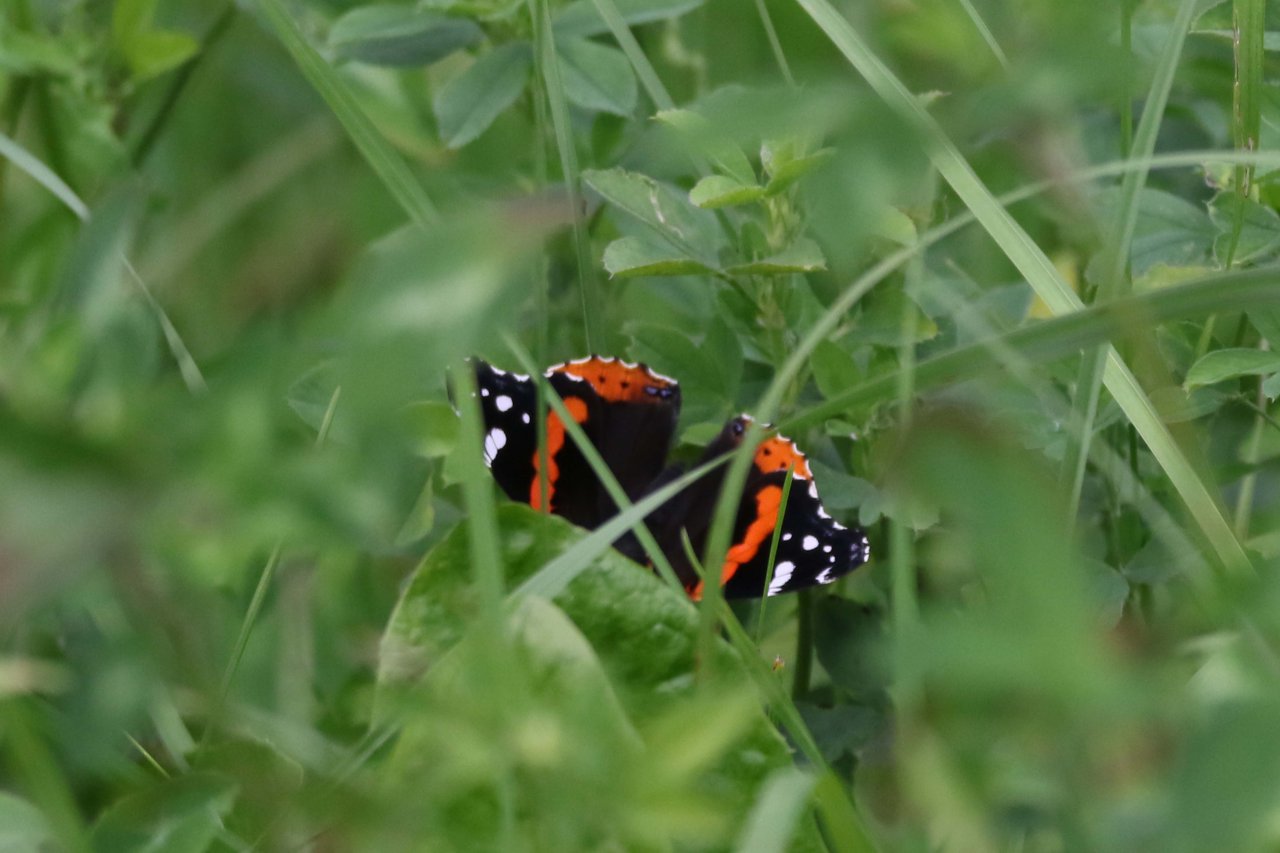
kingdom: Animalia
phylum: Arthropoda
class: Insecta
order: Lepidoptera
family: Nymphalidae
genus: Vanessa
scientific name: Vanessa atalanta
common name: Red Admiral
